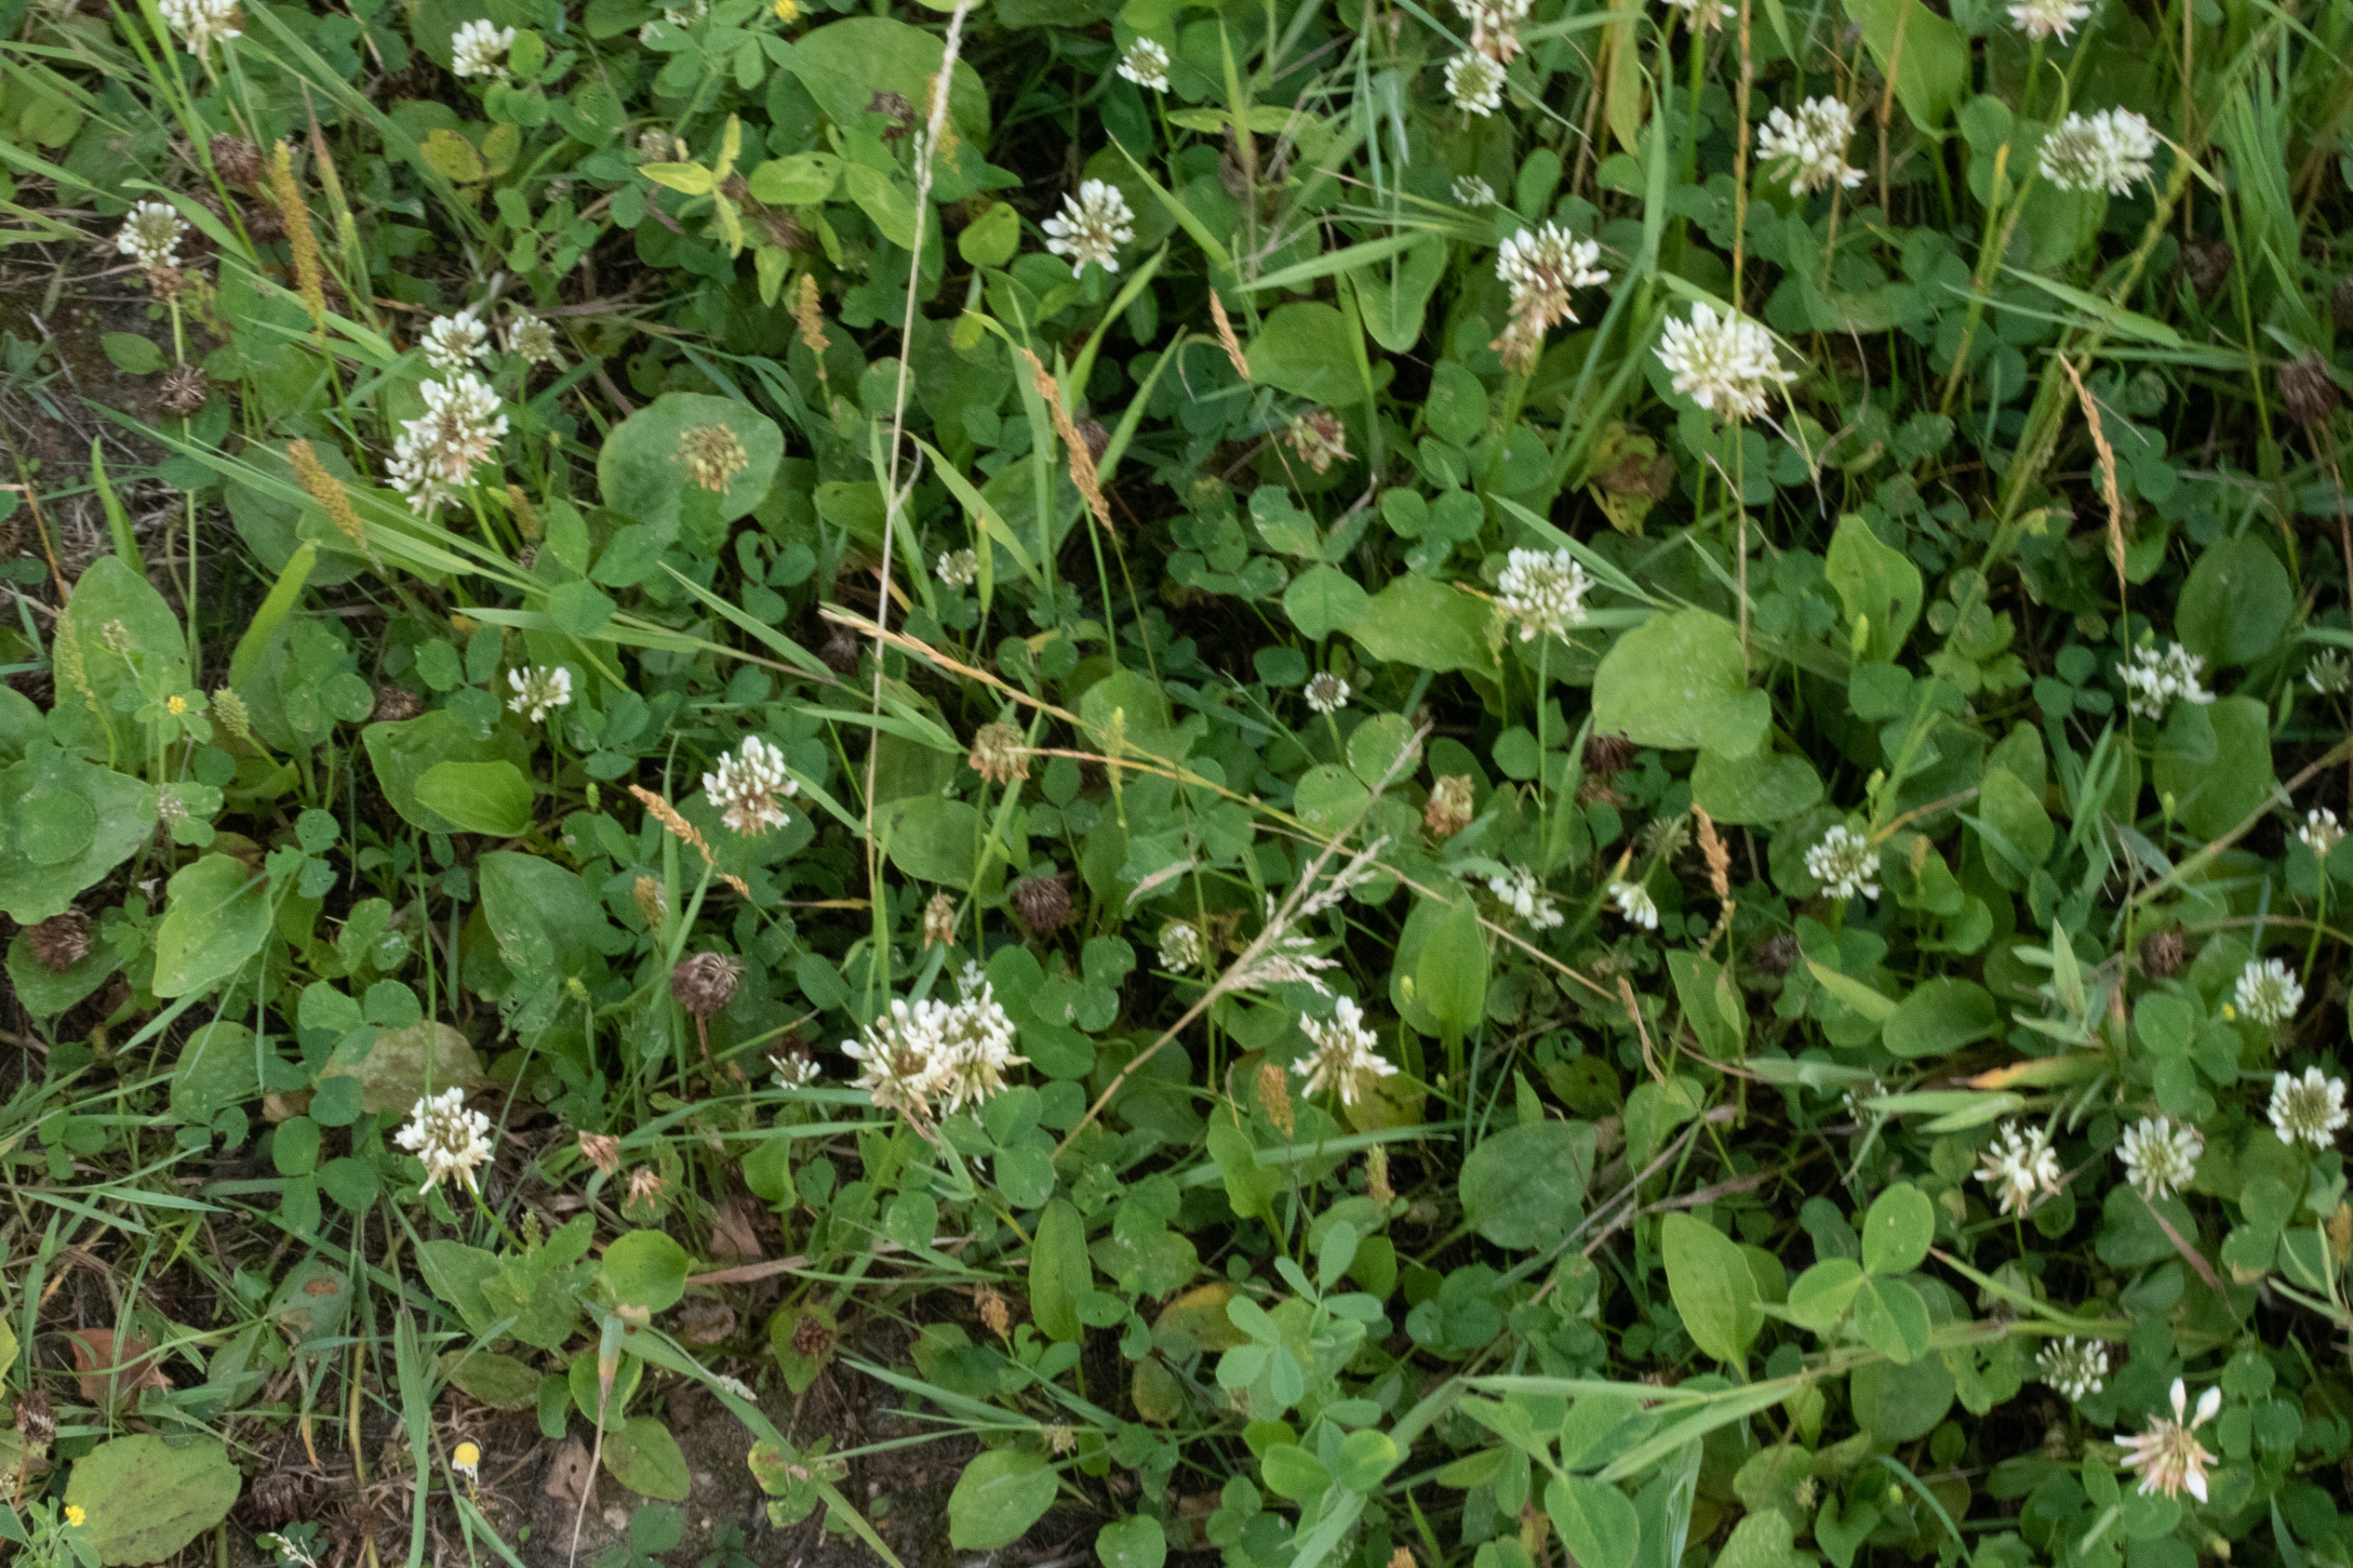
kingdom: Plantae
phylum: Tracheophyta
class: Magnoliopsida
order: Fabales
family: Fabaceae
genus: Trifolium
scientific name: Trifolium repens
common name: Hvid-kløver
